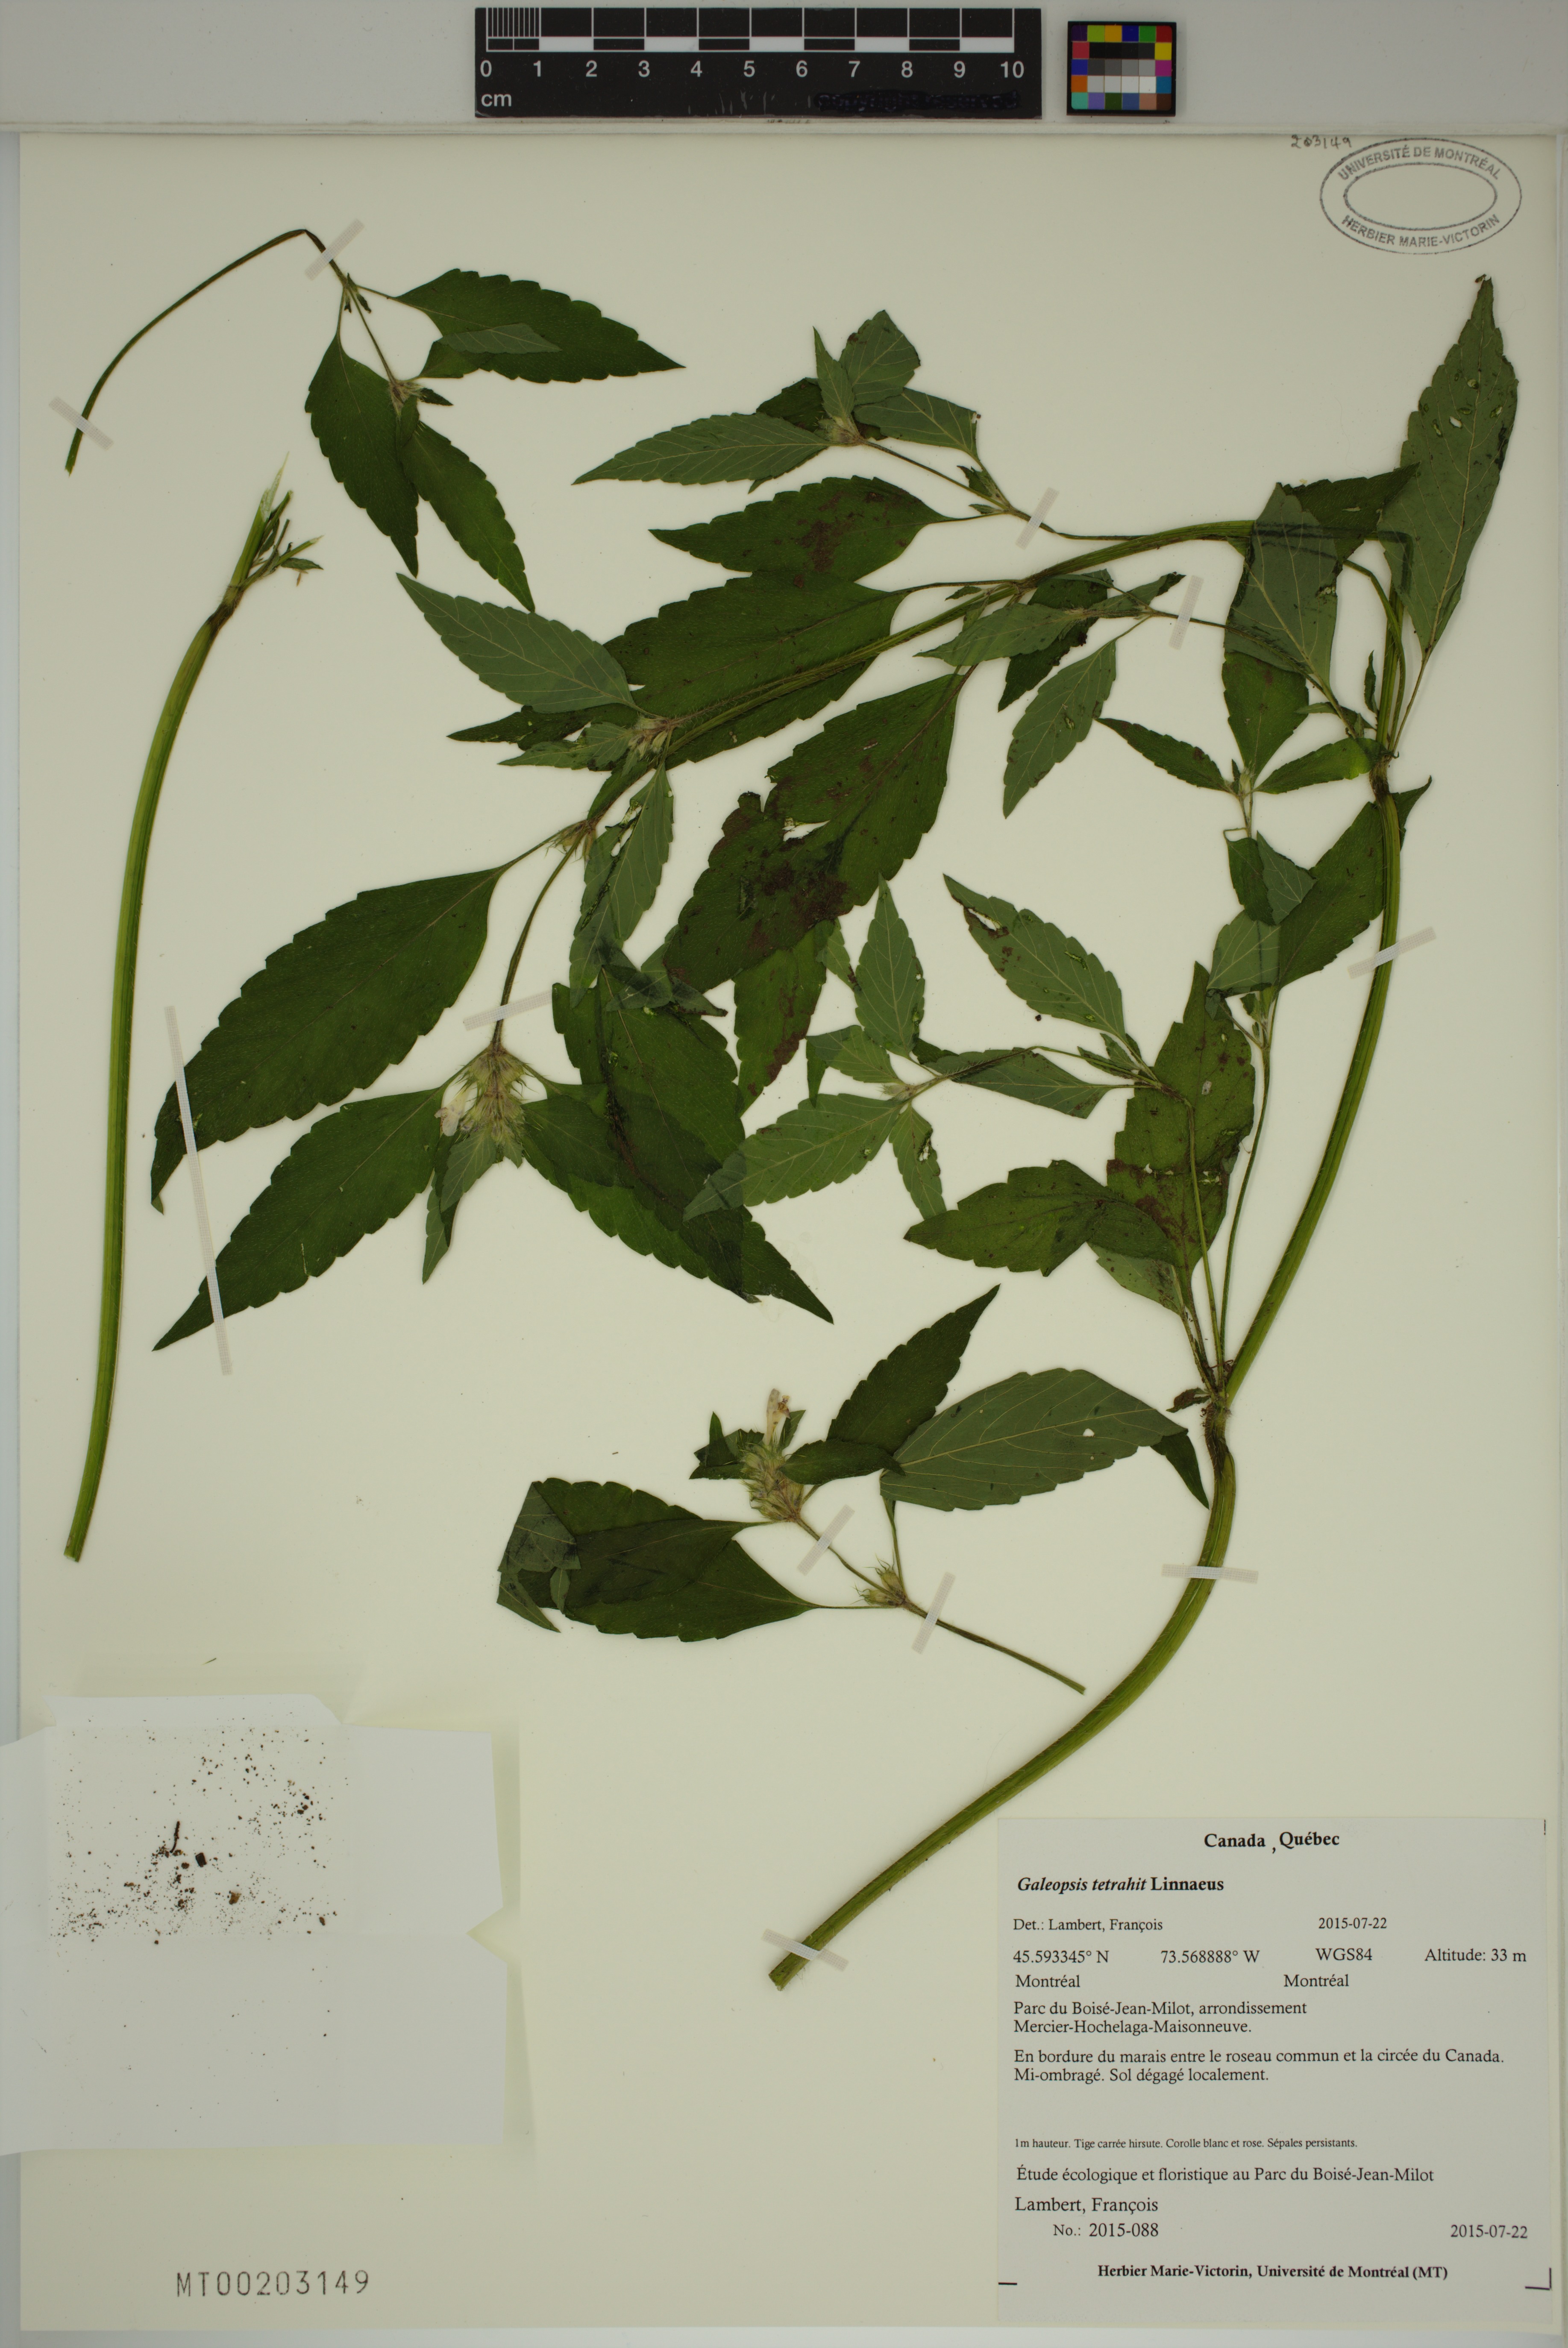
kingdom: Plantae
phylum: Tracheophyta
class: Magnoliopsida
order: Lamiales
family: Lamiaceae
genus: Galeopsis
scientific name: Galeopsis tetrahit
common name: Common hemp-nettle
